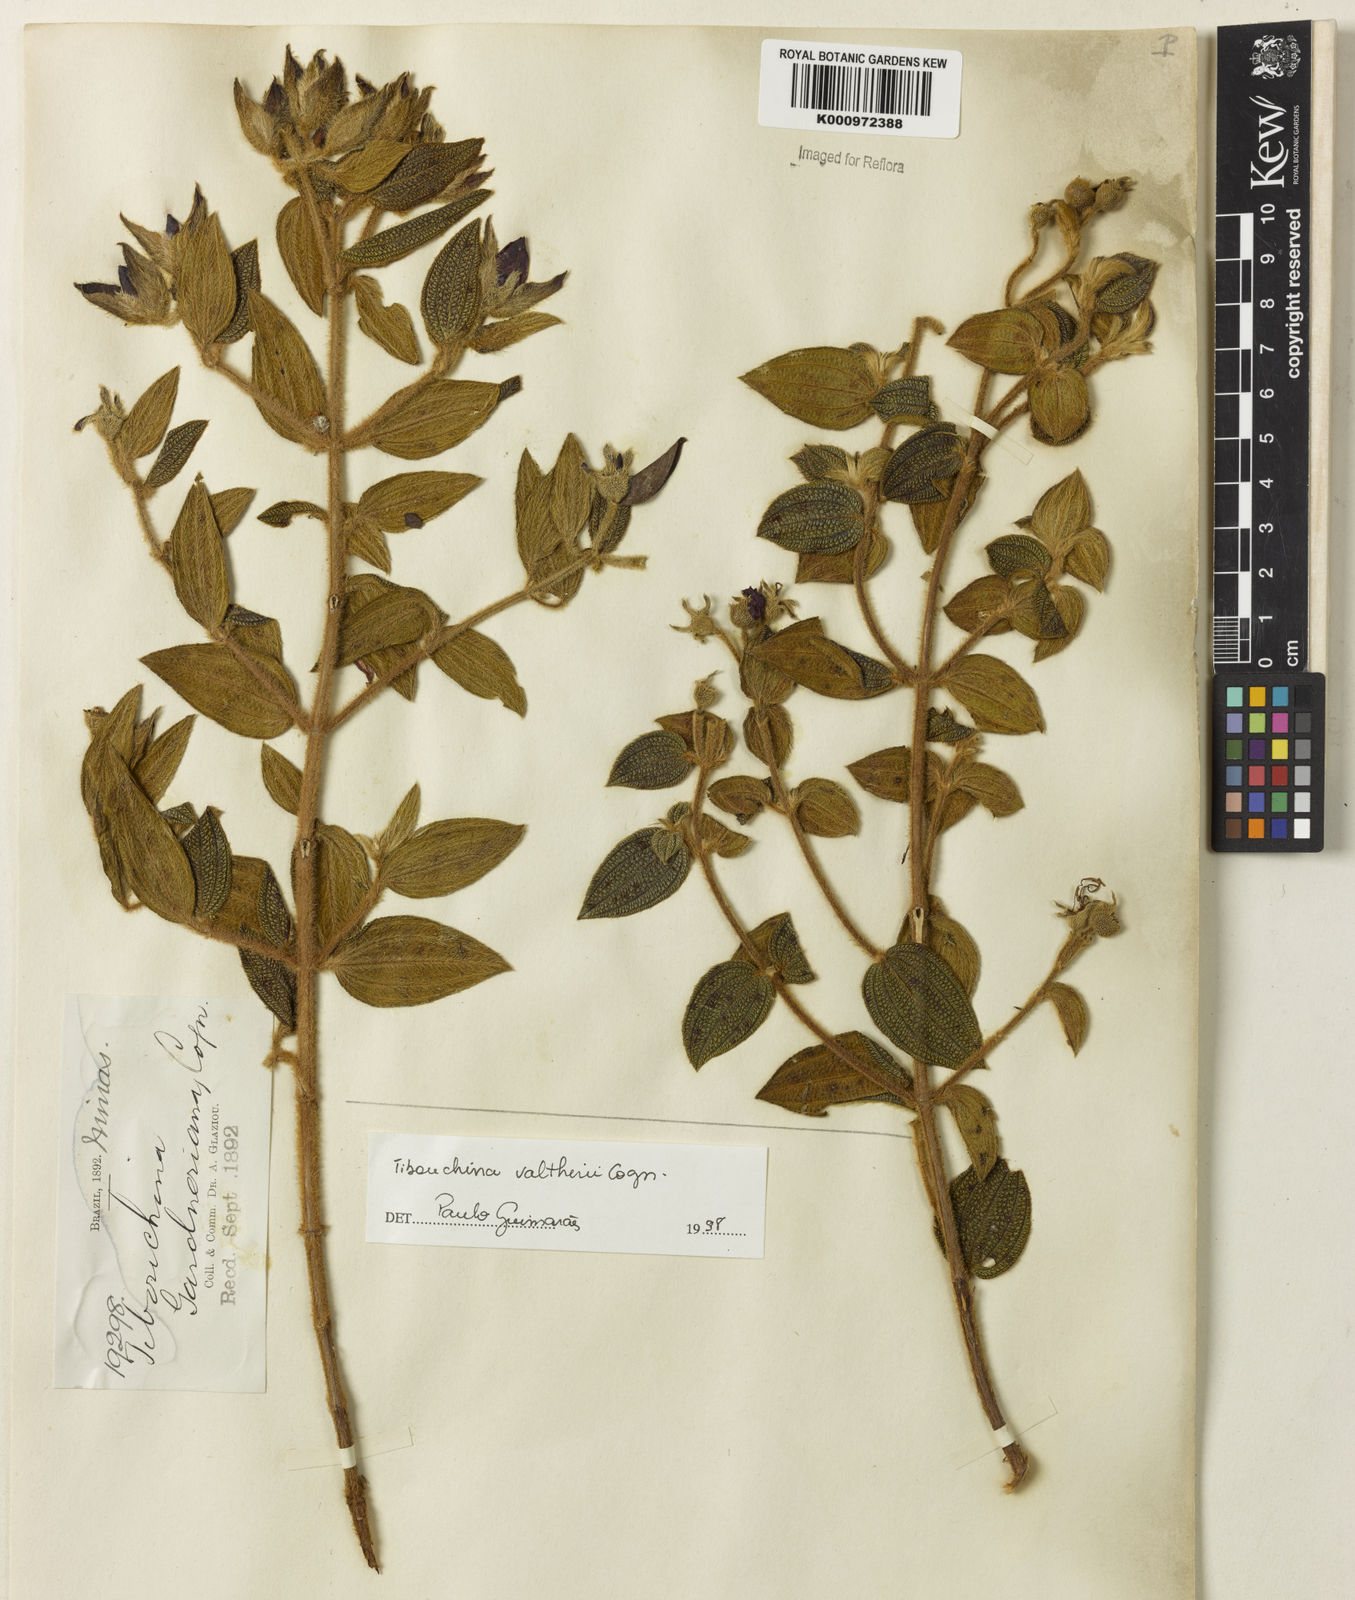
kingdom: Plantae
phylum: Tracheophyta
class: Magnoliopsida
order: Myrtales
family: Melastomataceae
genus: Pleroma
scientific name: Pleroma aemula
